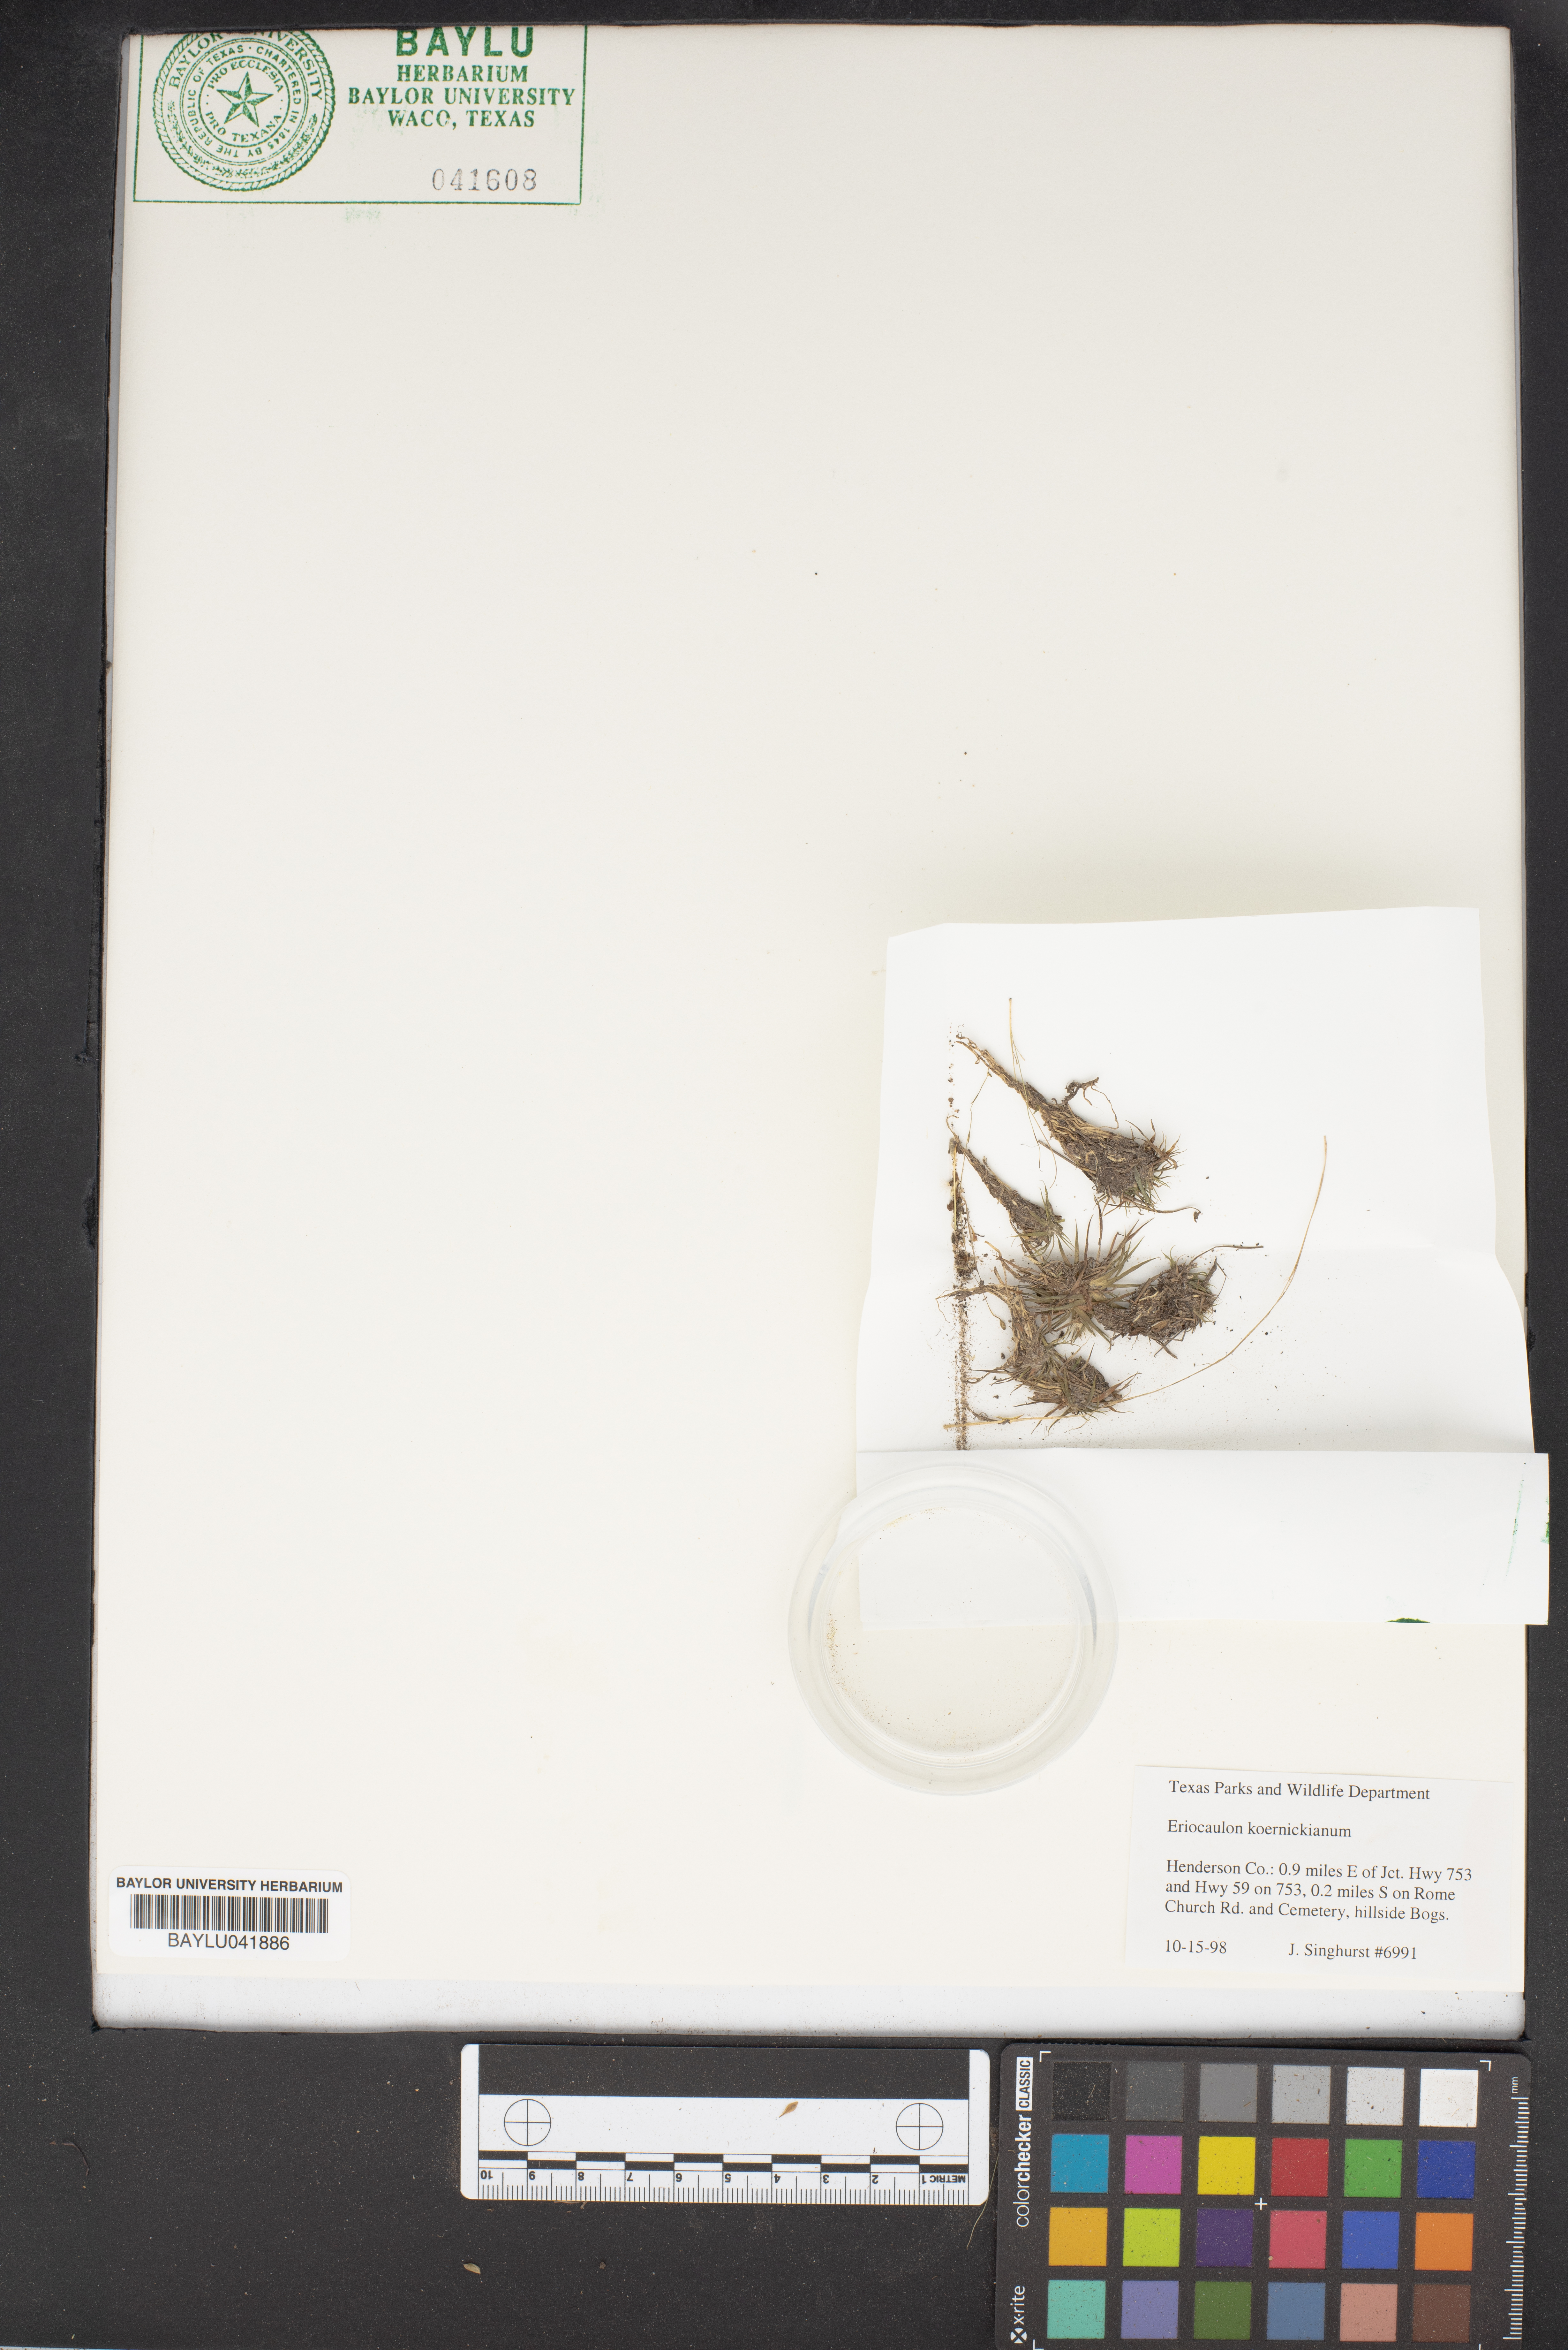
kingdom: Plantae
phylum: Tracheophyta
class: Liliopsida
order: Poales
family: Eriocaulaceae
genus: Eriocaulon
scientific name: Eriocaulon koernickianum
